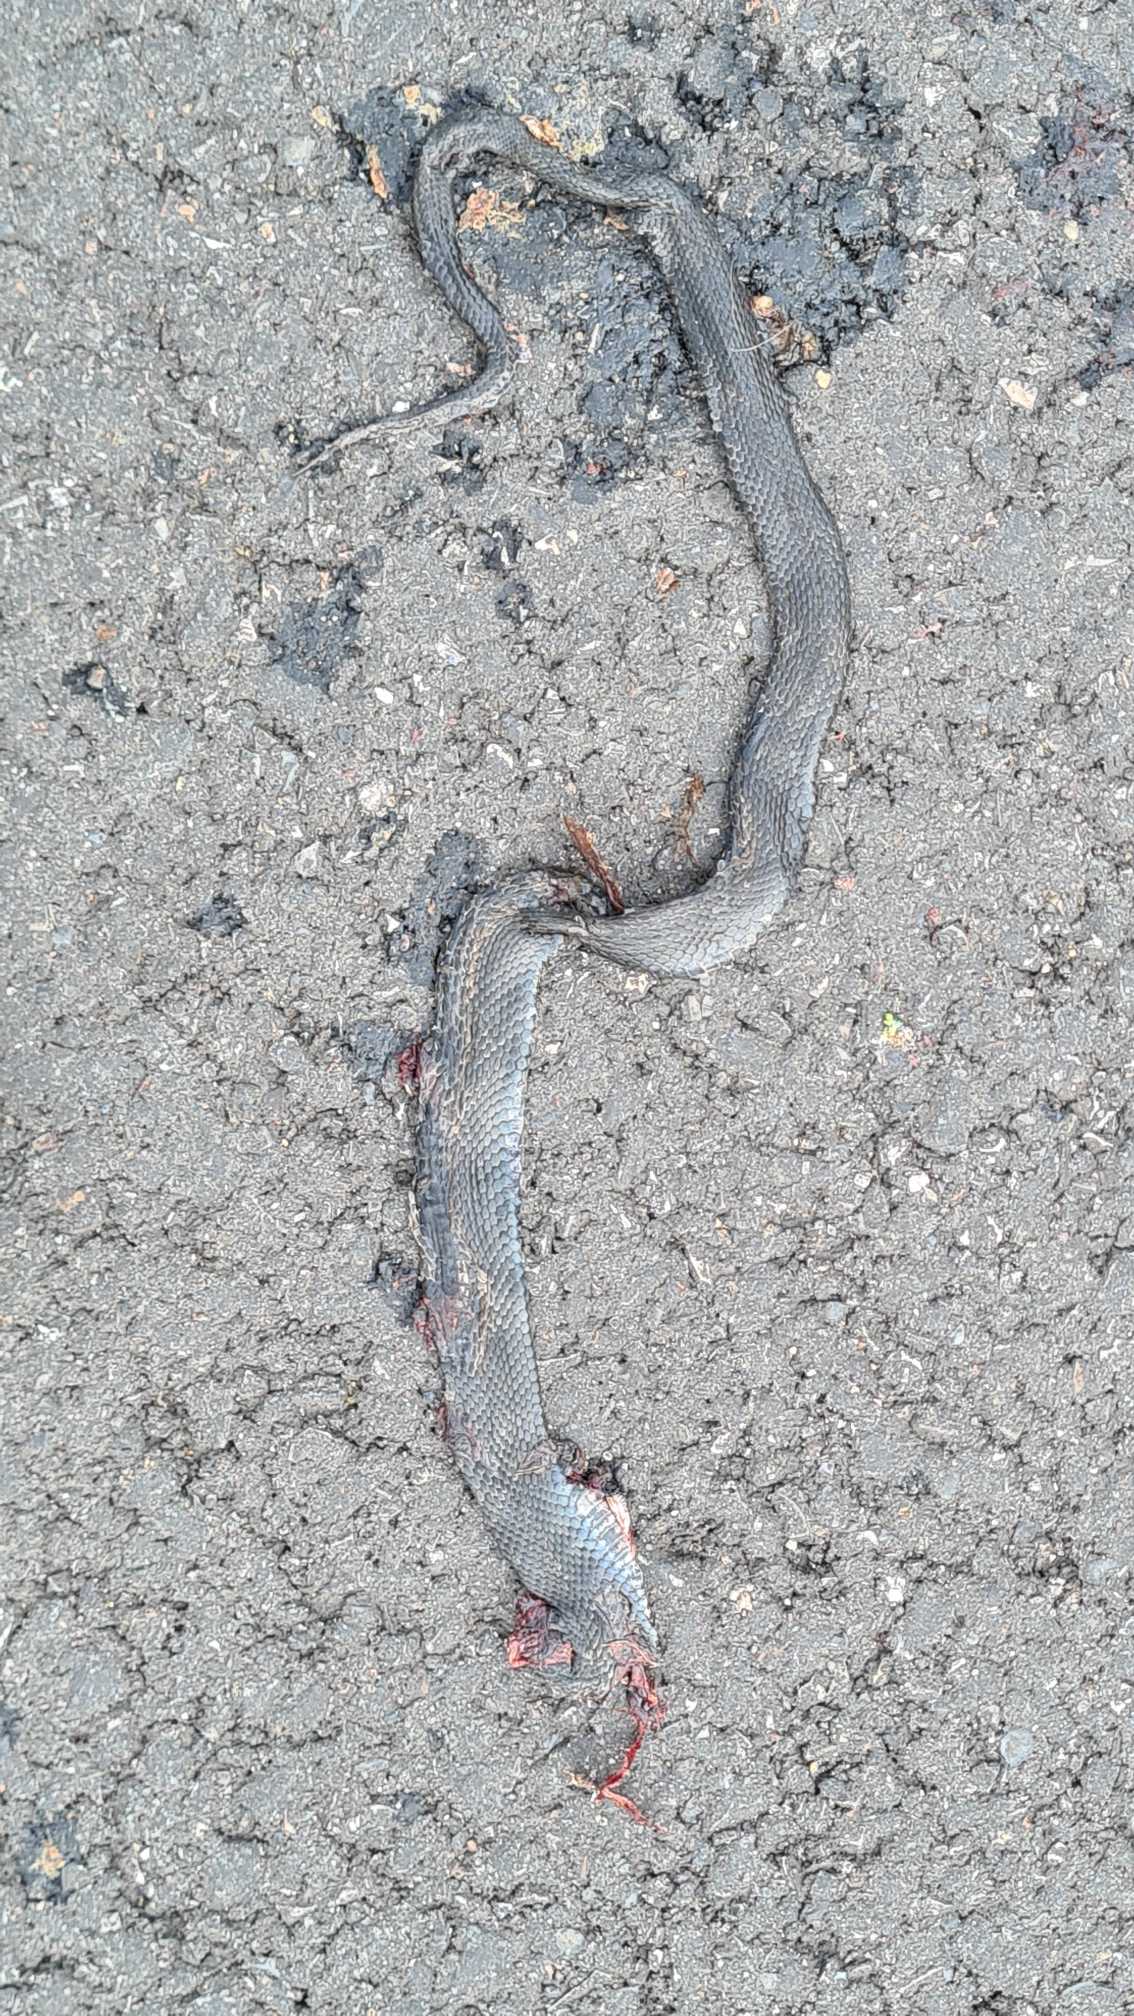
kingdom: Animalia
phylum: Chordata
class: Squamata
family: Colubridae
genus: Natrix
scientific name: Natrix natrix
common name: Snog
